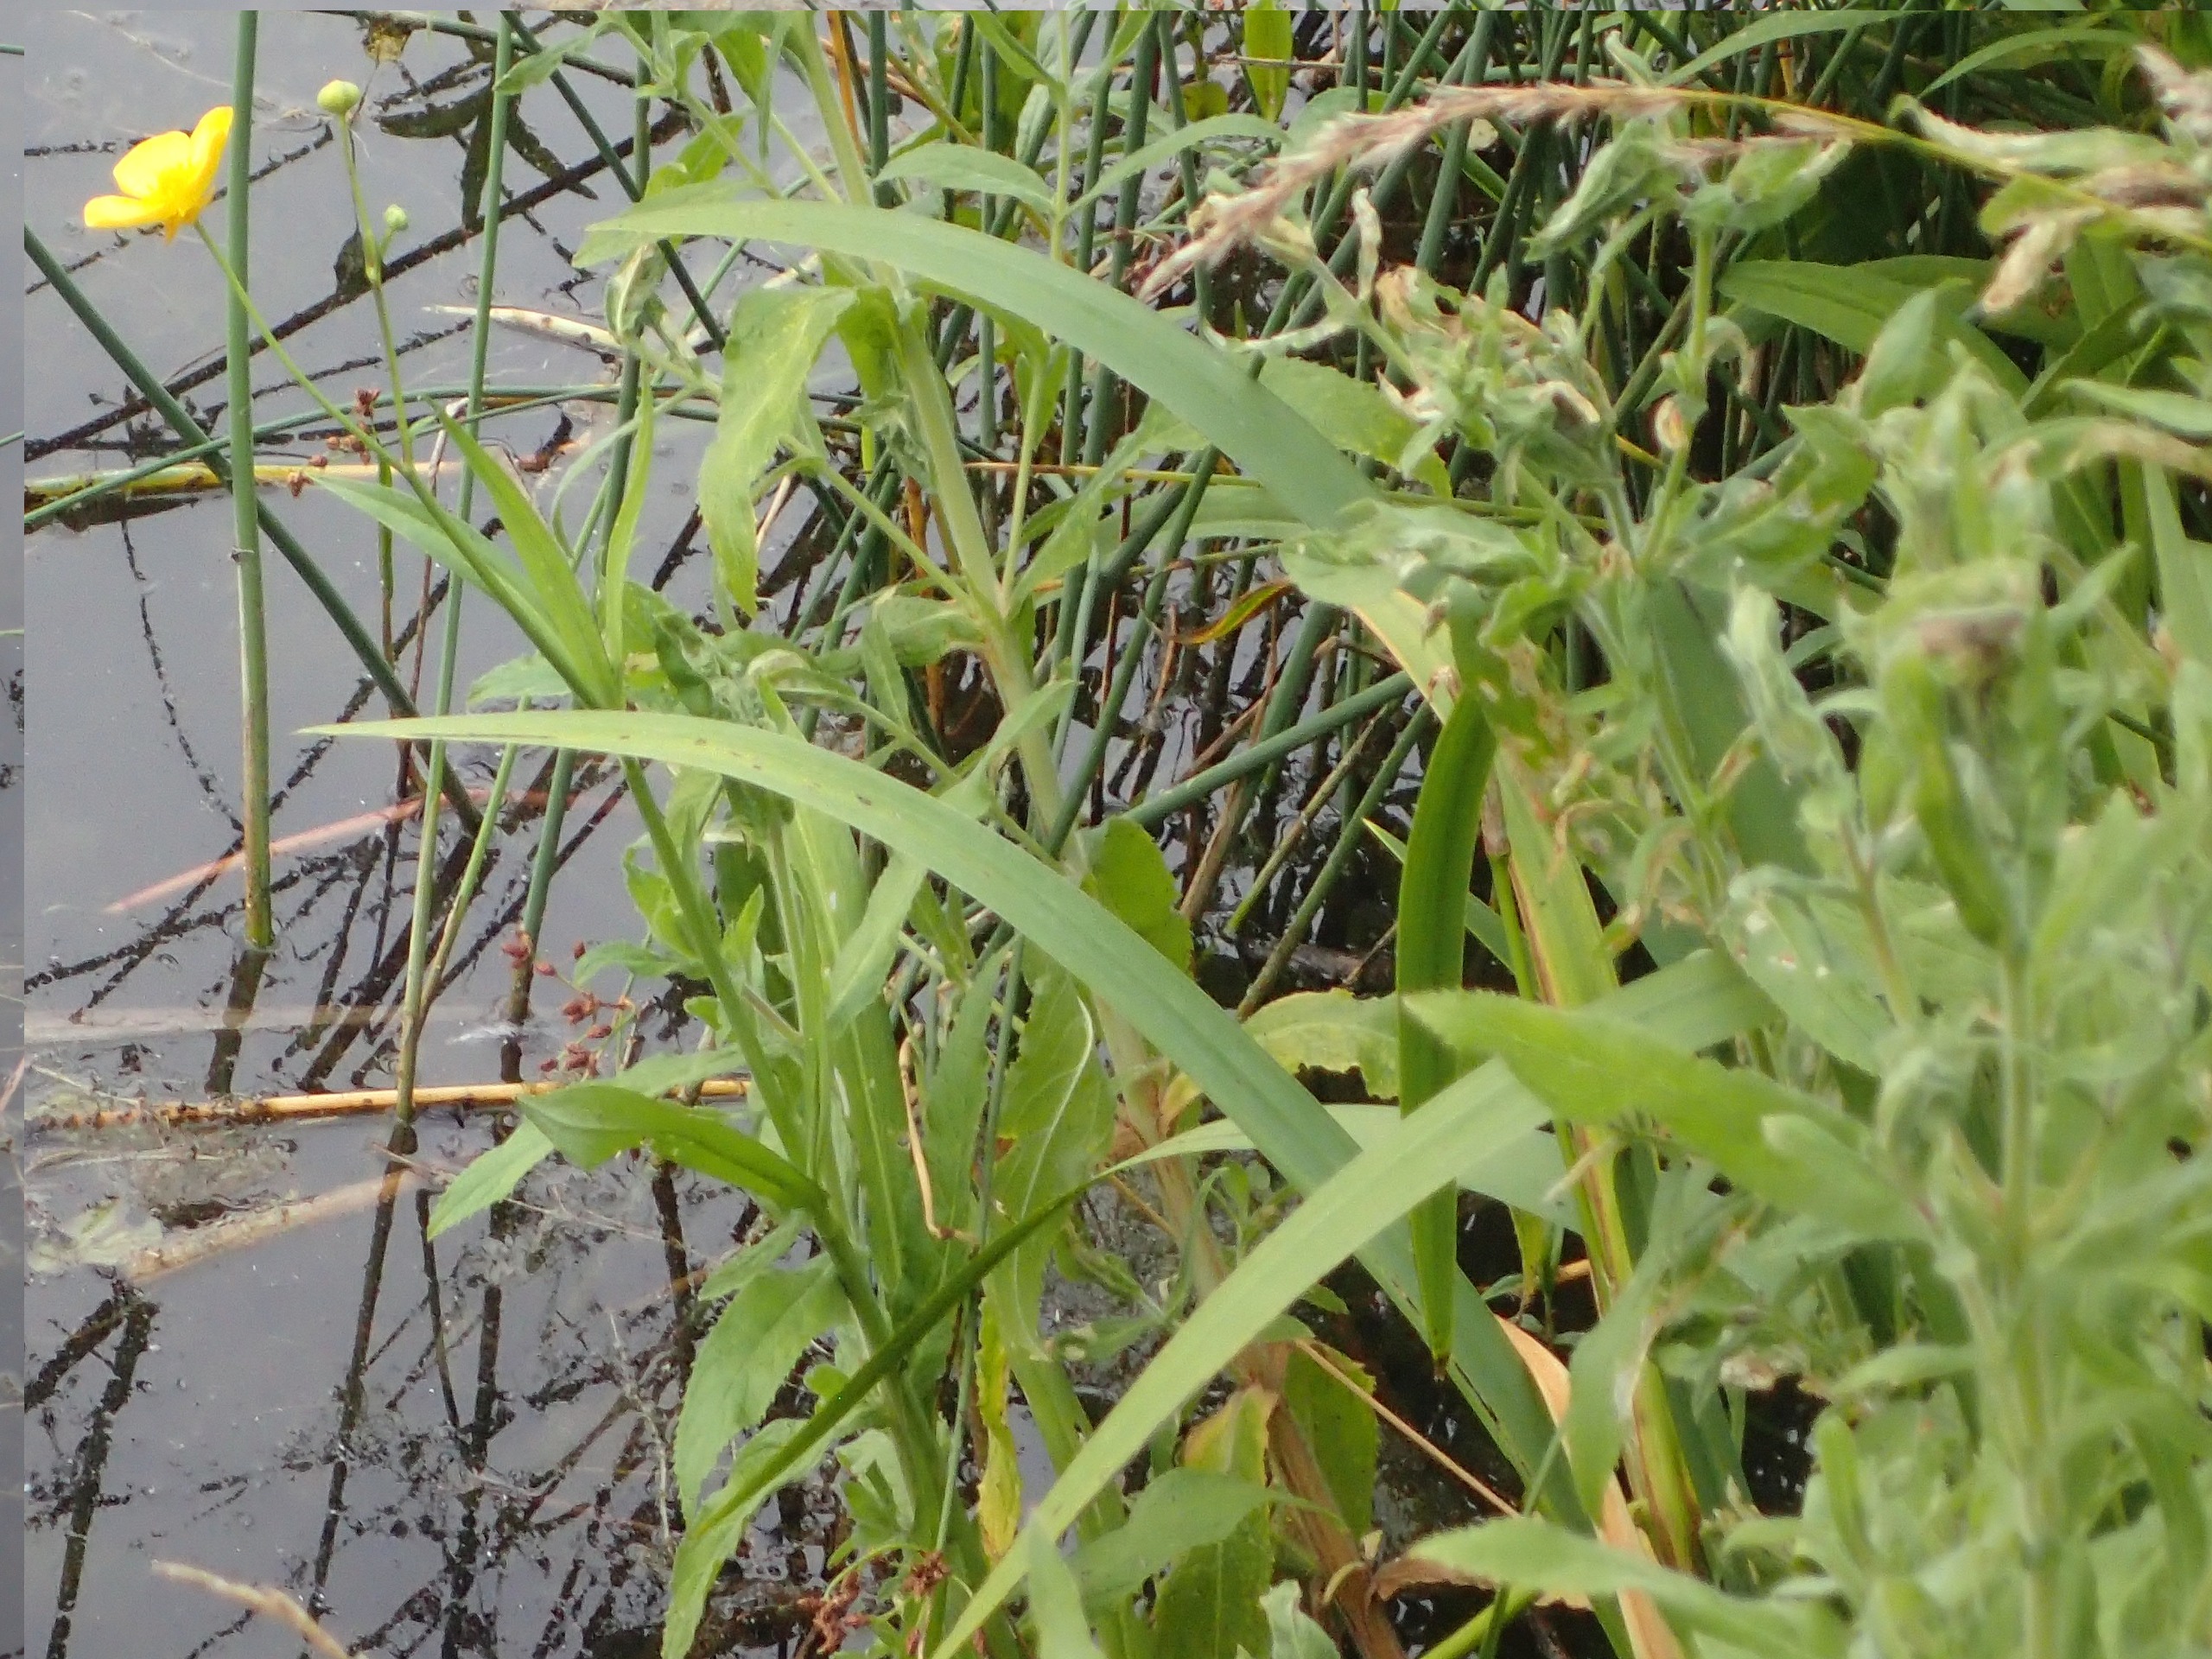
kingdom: Plantae
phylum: Tracheophyta
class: Magnoliopsida
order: Ranunculales
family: Ranunculaceae
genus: Ranunculus
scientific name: Ranunculus lingua
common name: Langbladet ranunkel
